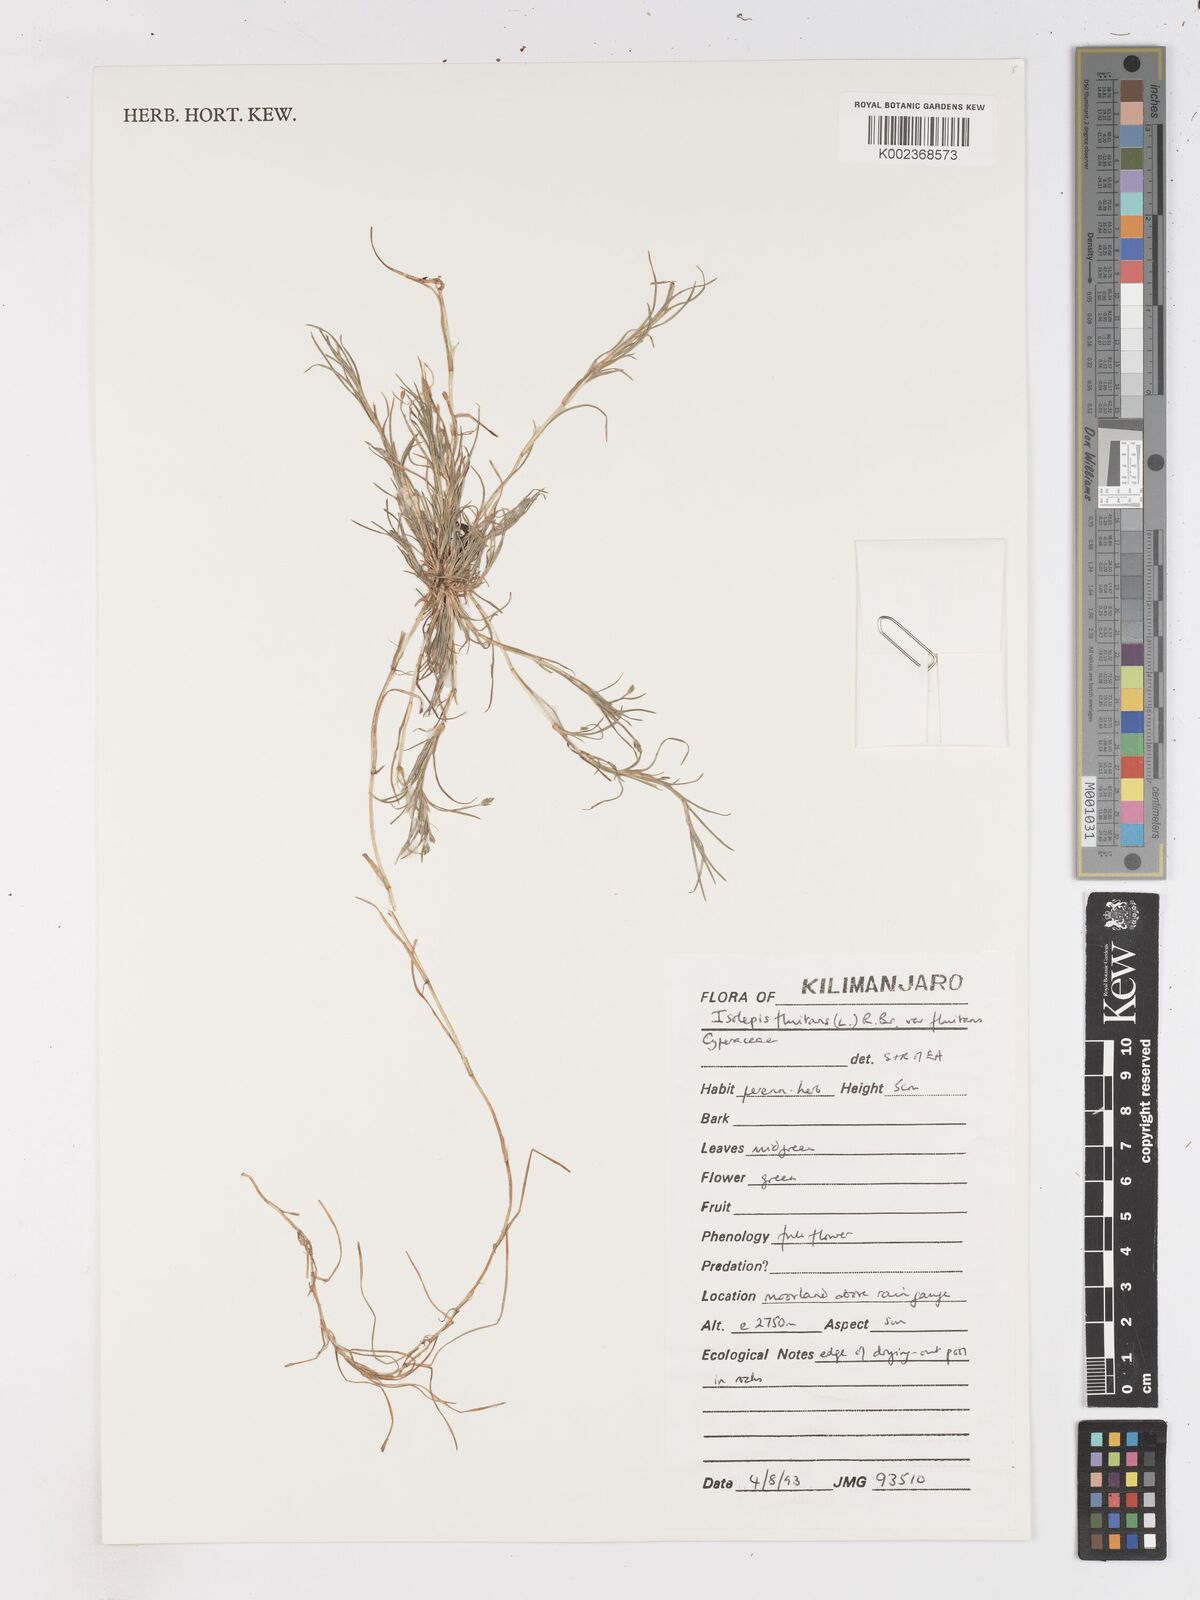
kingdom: Plantae
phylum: Tracheophyta
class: Liliopsida
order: Poales
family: Cyperaceae
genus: Isolepis
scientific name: Isolepis fluitans
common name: Floating club-rush
